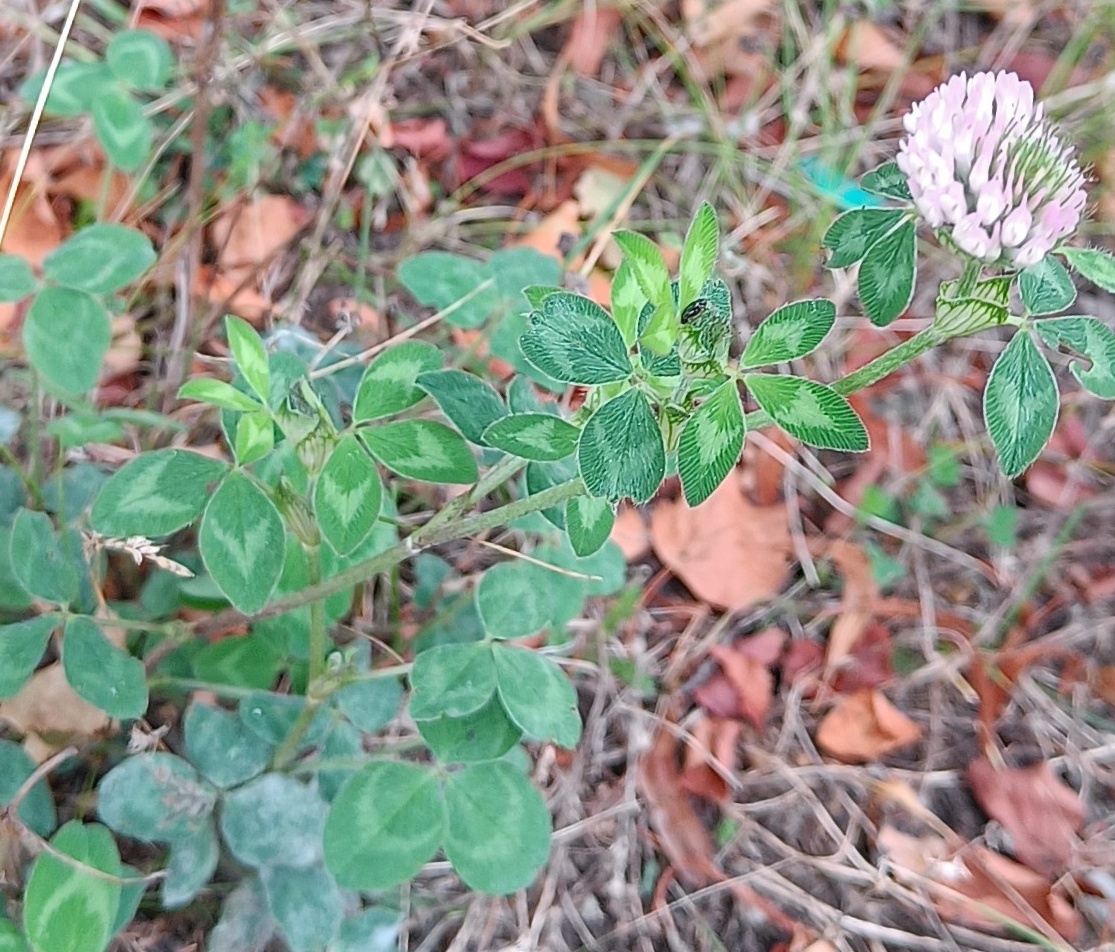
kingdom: Plantae
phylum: Tracheophyta
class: Magnoliopsida
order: Fabales
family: Fabaceae
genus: Trifolium
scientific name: Trifolium pratense
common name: Rød-kløver
